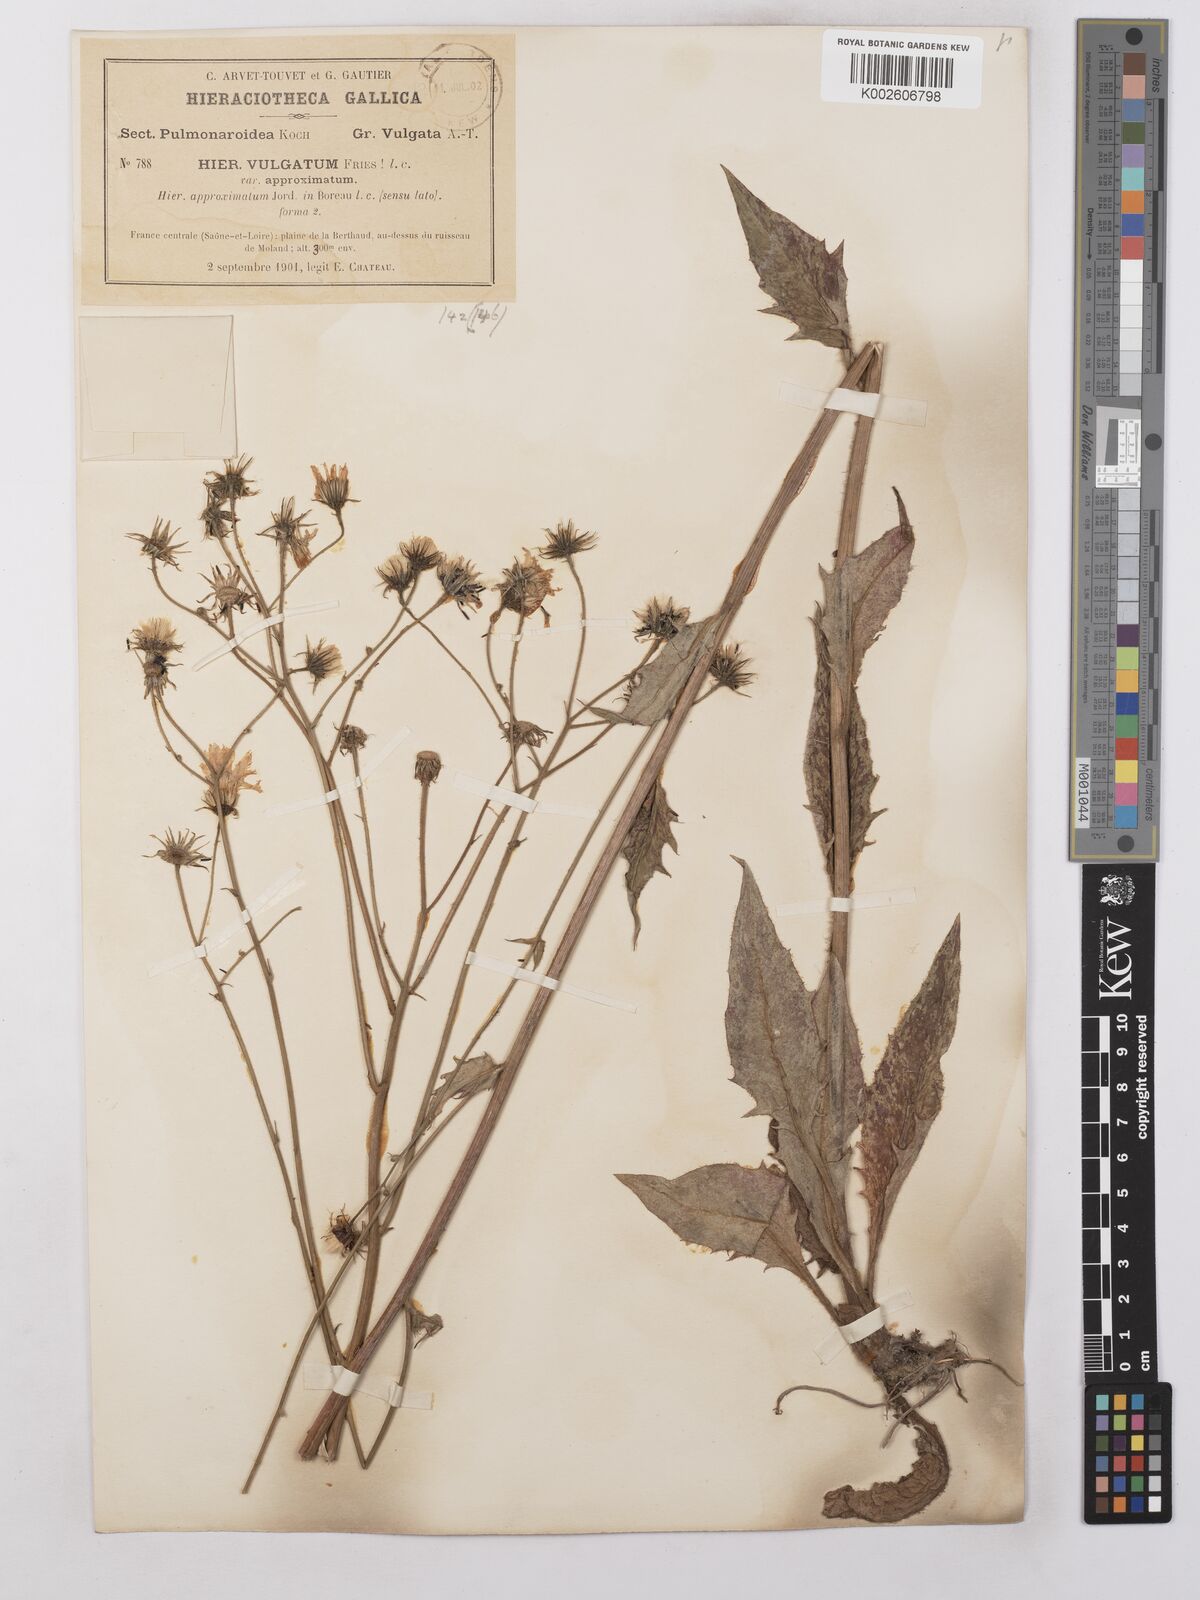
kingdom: Plantae
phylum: Tracheophyta
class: Magnoliopsida
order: Asterales
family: Asteraceae
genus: Hieracium
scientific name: Hieracium lachenalii
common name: Common hawkweed
